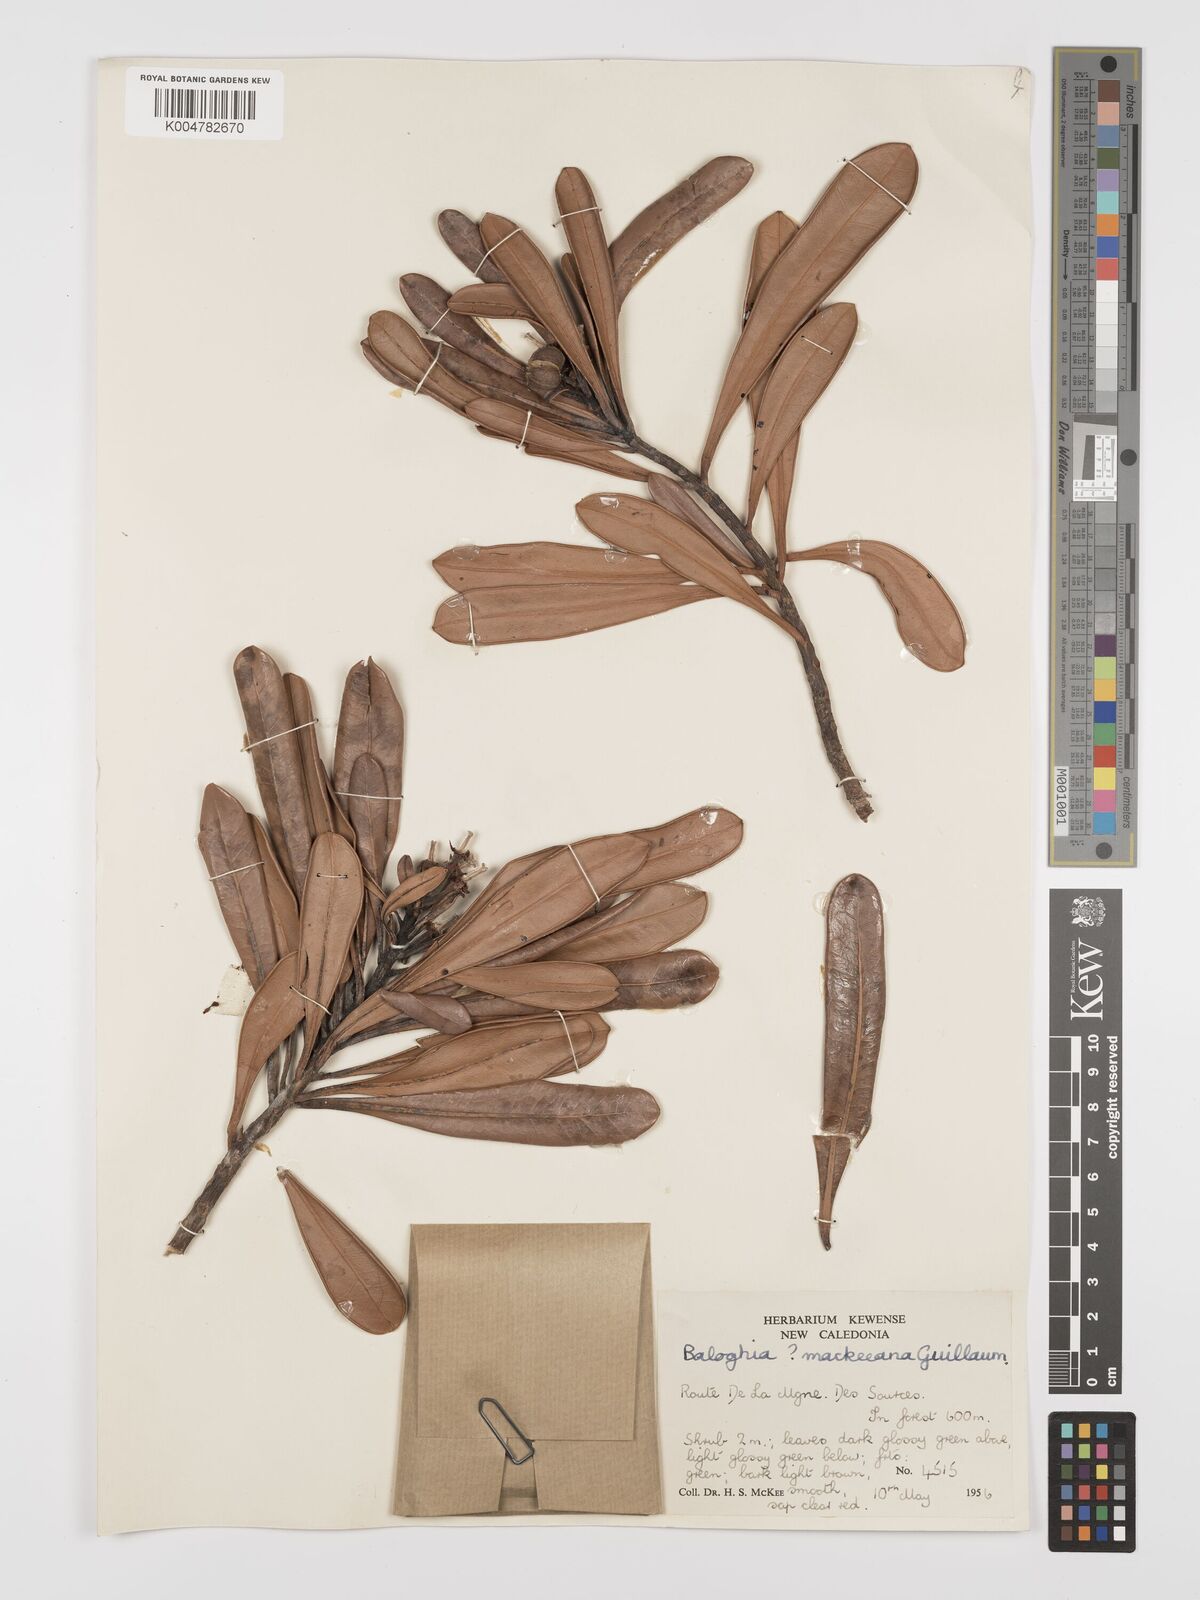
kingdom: Plantae
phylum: Tracheophyta
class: Magnoliopsida
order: Malpighiales
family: Euphorbiaceae
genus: Baloghia
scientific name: Baloghia buchholzii
